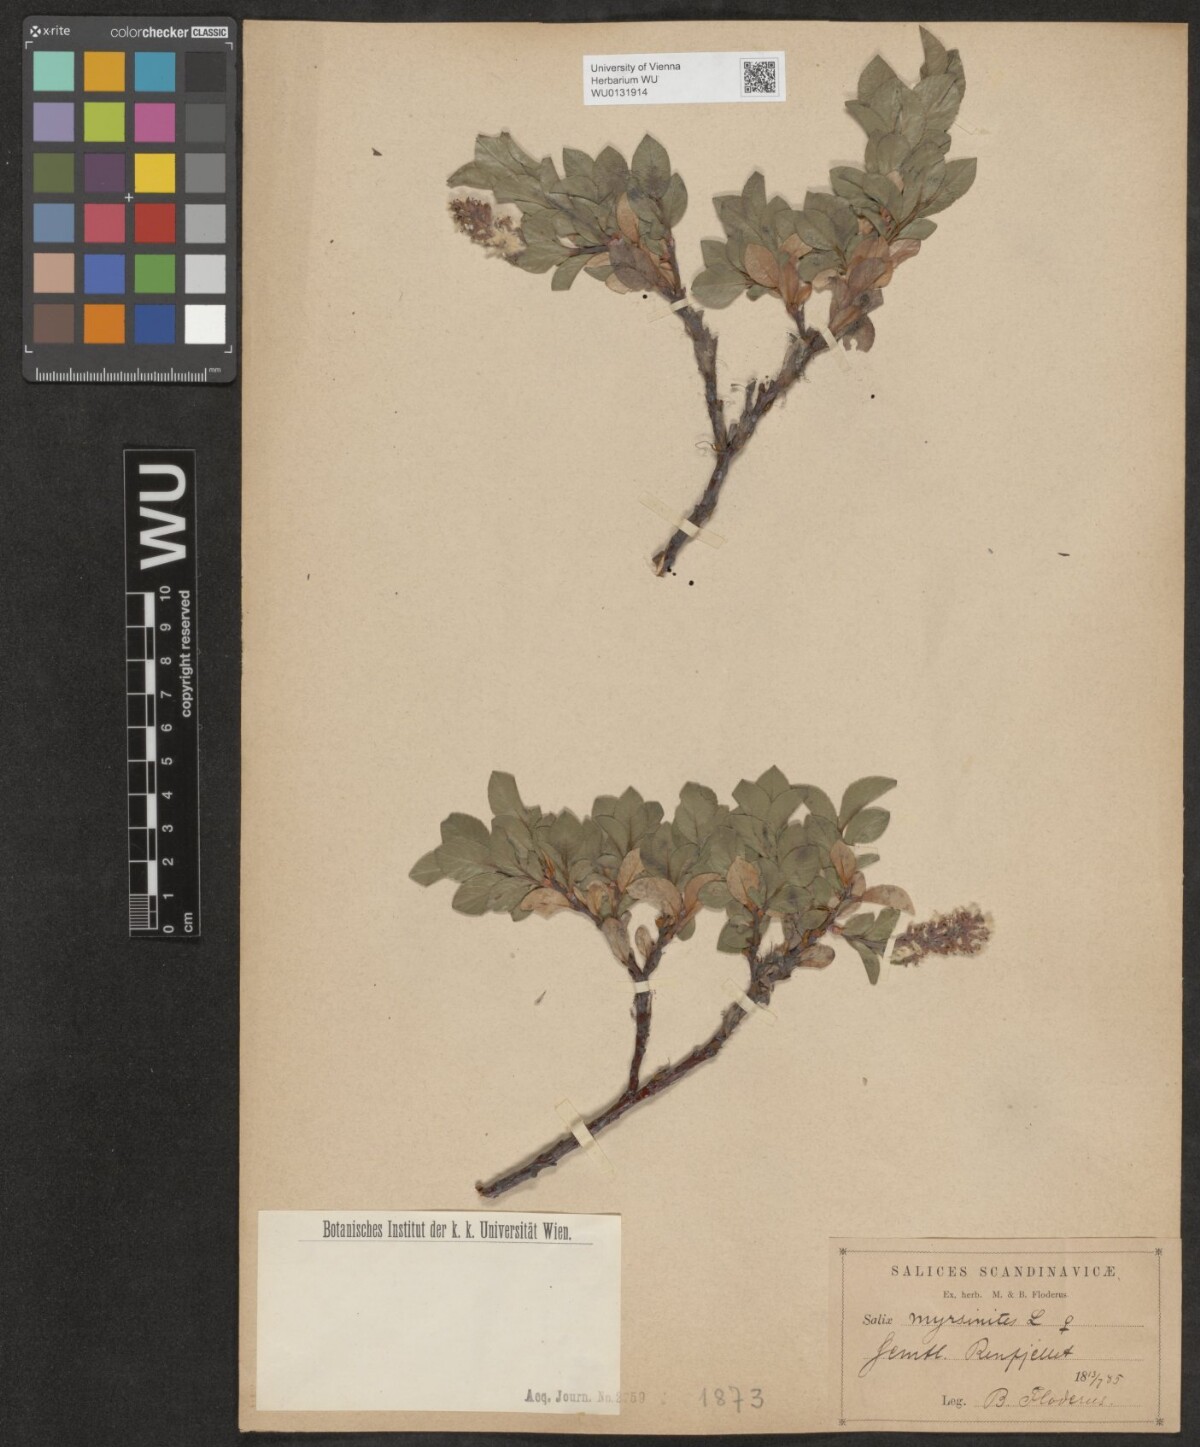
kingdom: Plantae
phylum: Tracheophyta
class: Magnoliopsida
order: Malpighiales
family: Salicaceae
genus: Salix
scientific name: Salix myrsinites
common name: Myrtle willow
